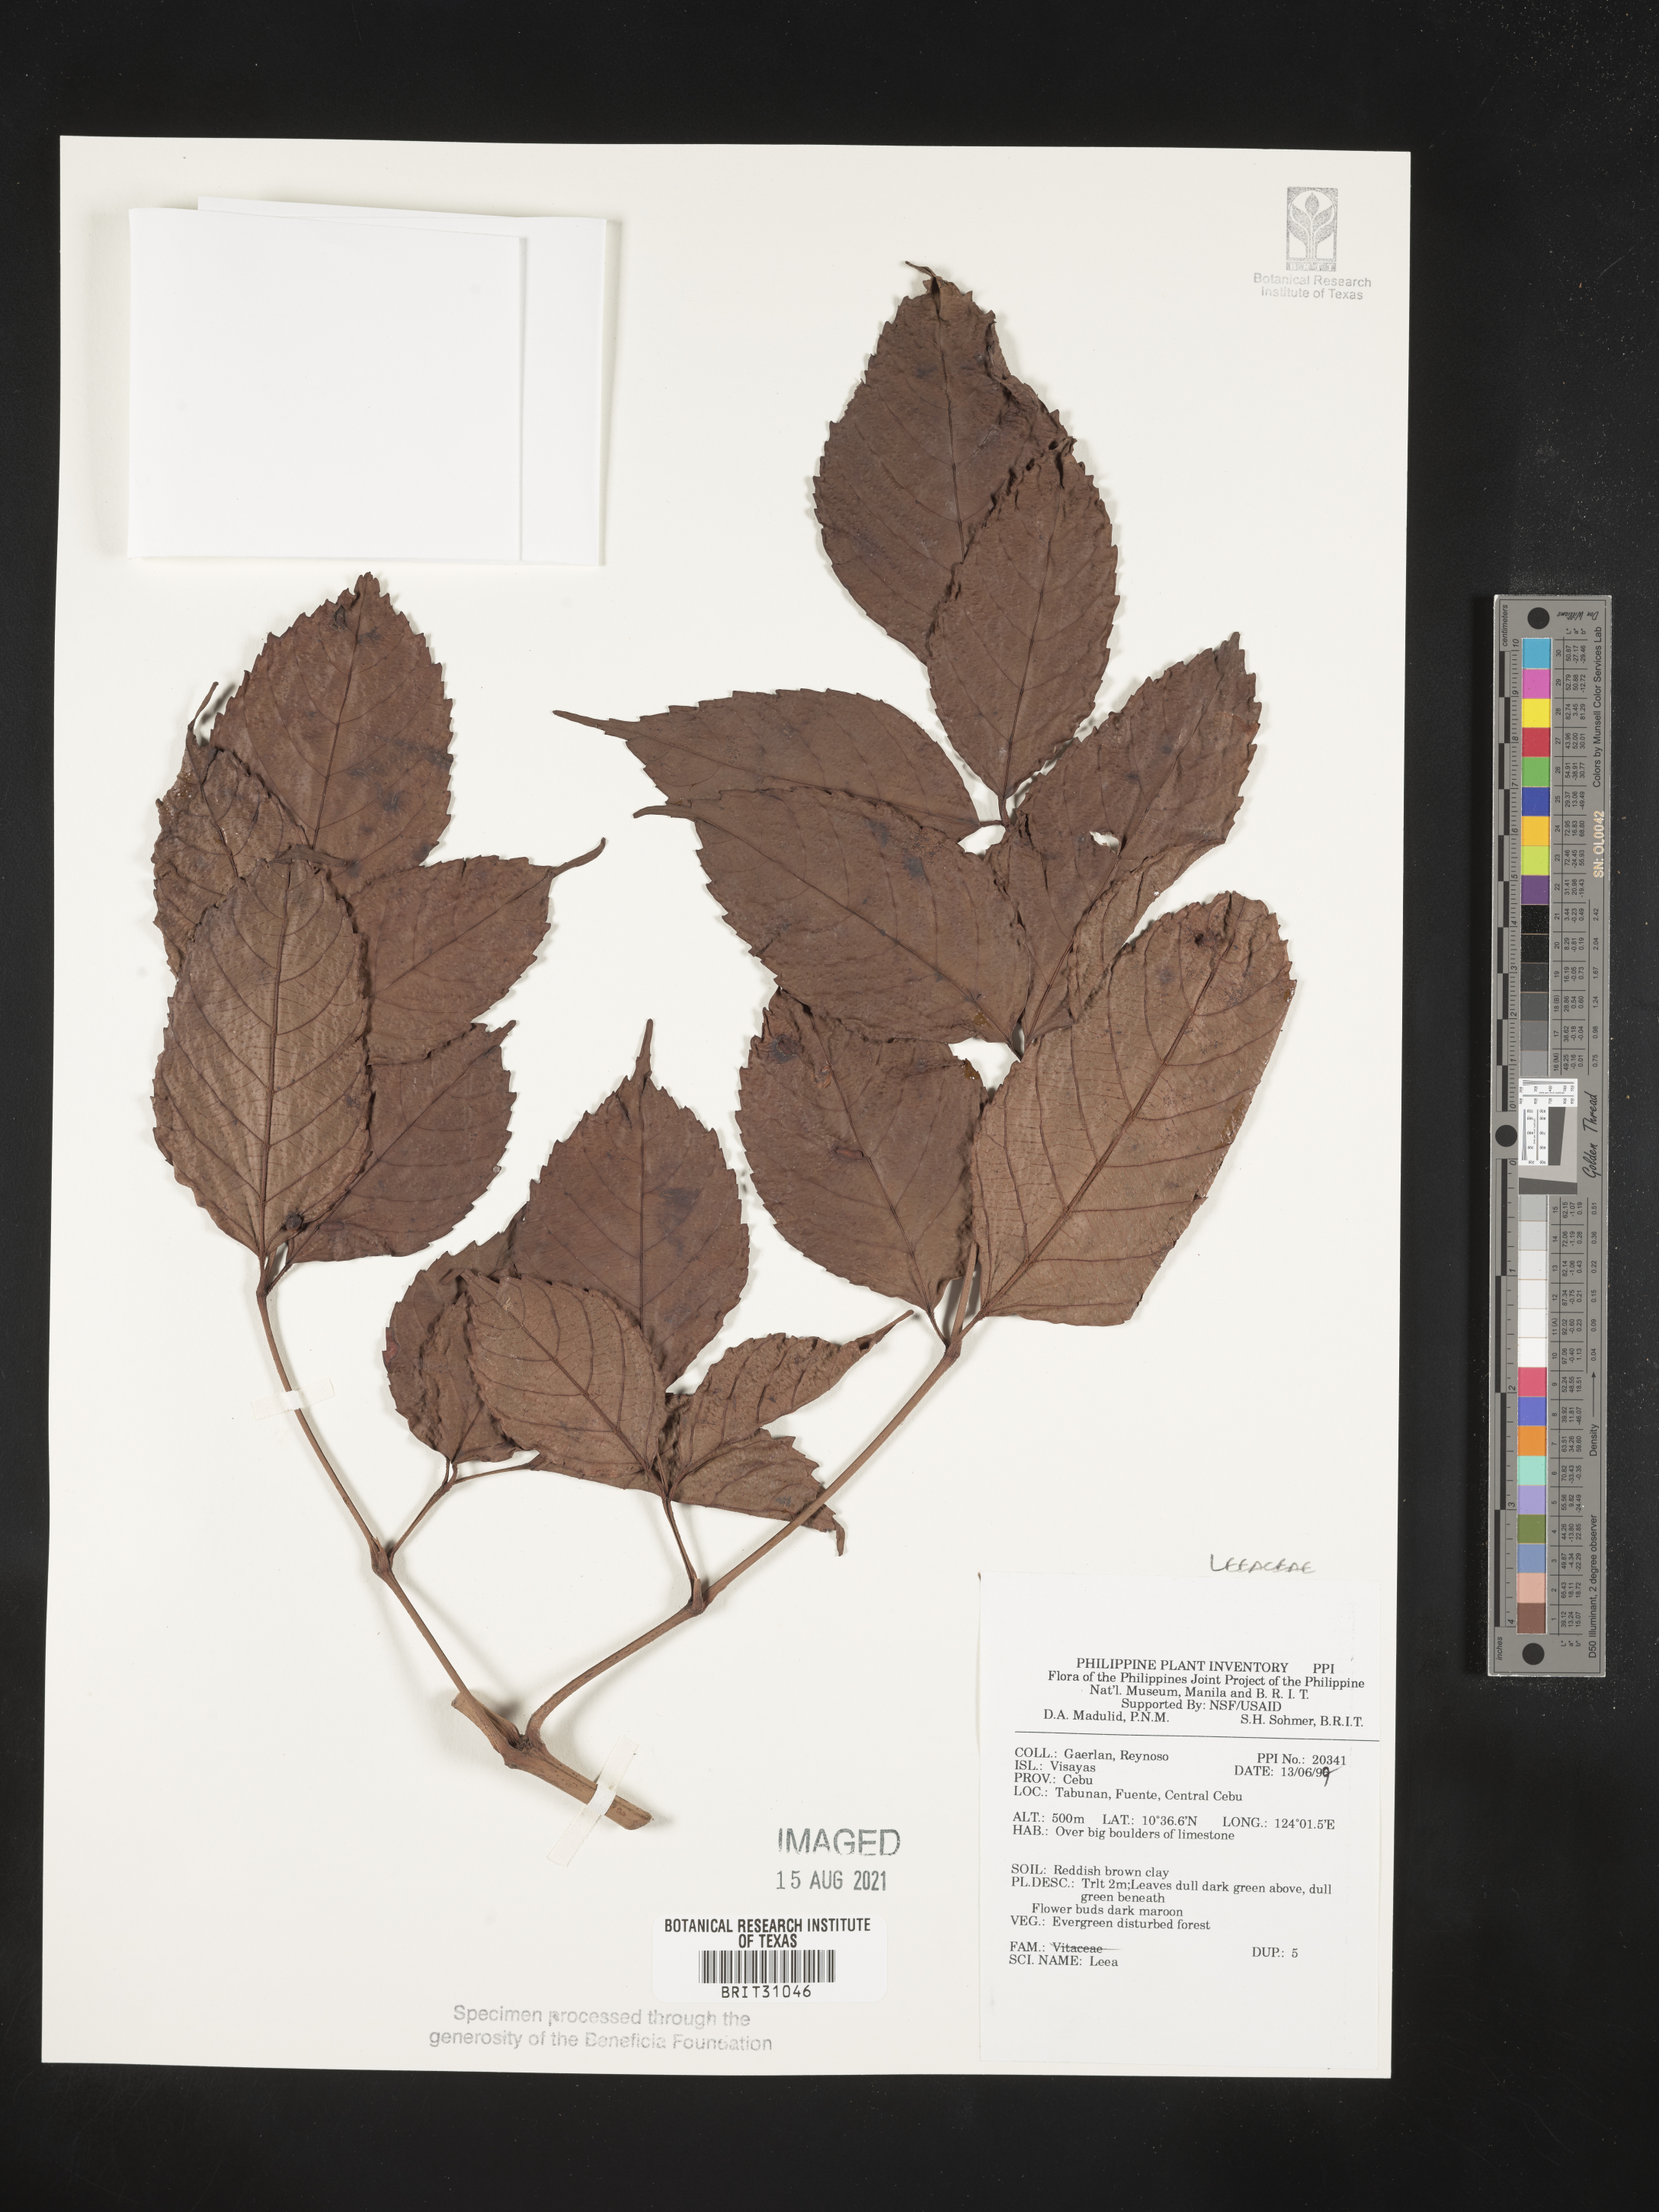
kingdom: Plantae
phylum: Tracheophyta
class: Magnoliopsida
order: Vitales
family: Vitaceae
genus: Leea
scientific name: Leea
